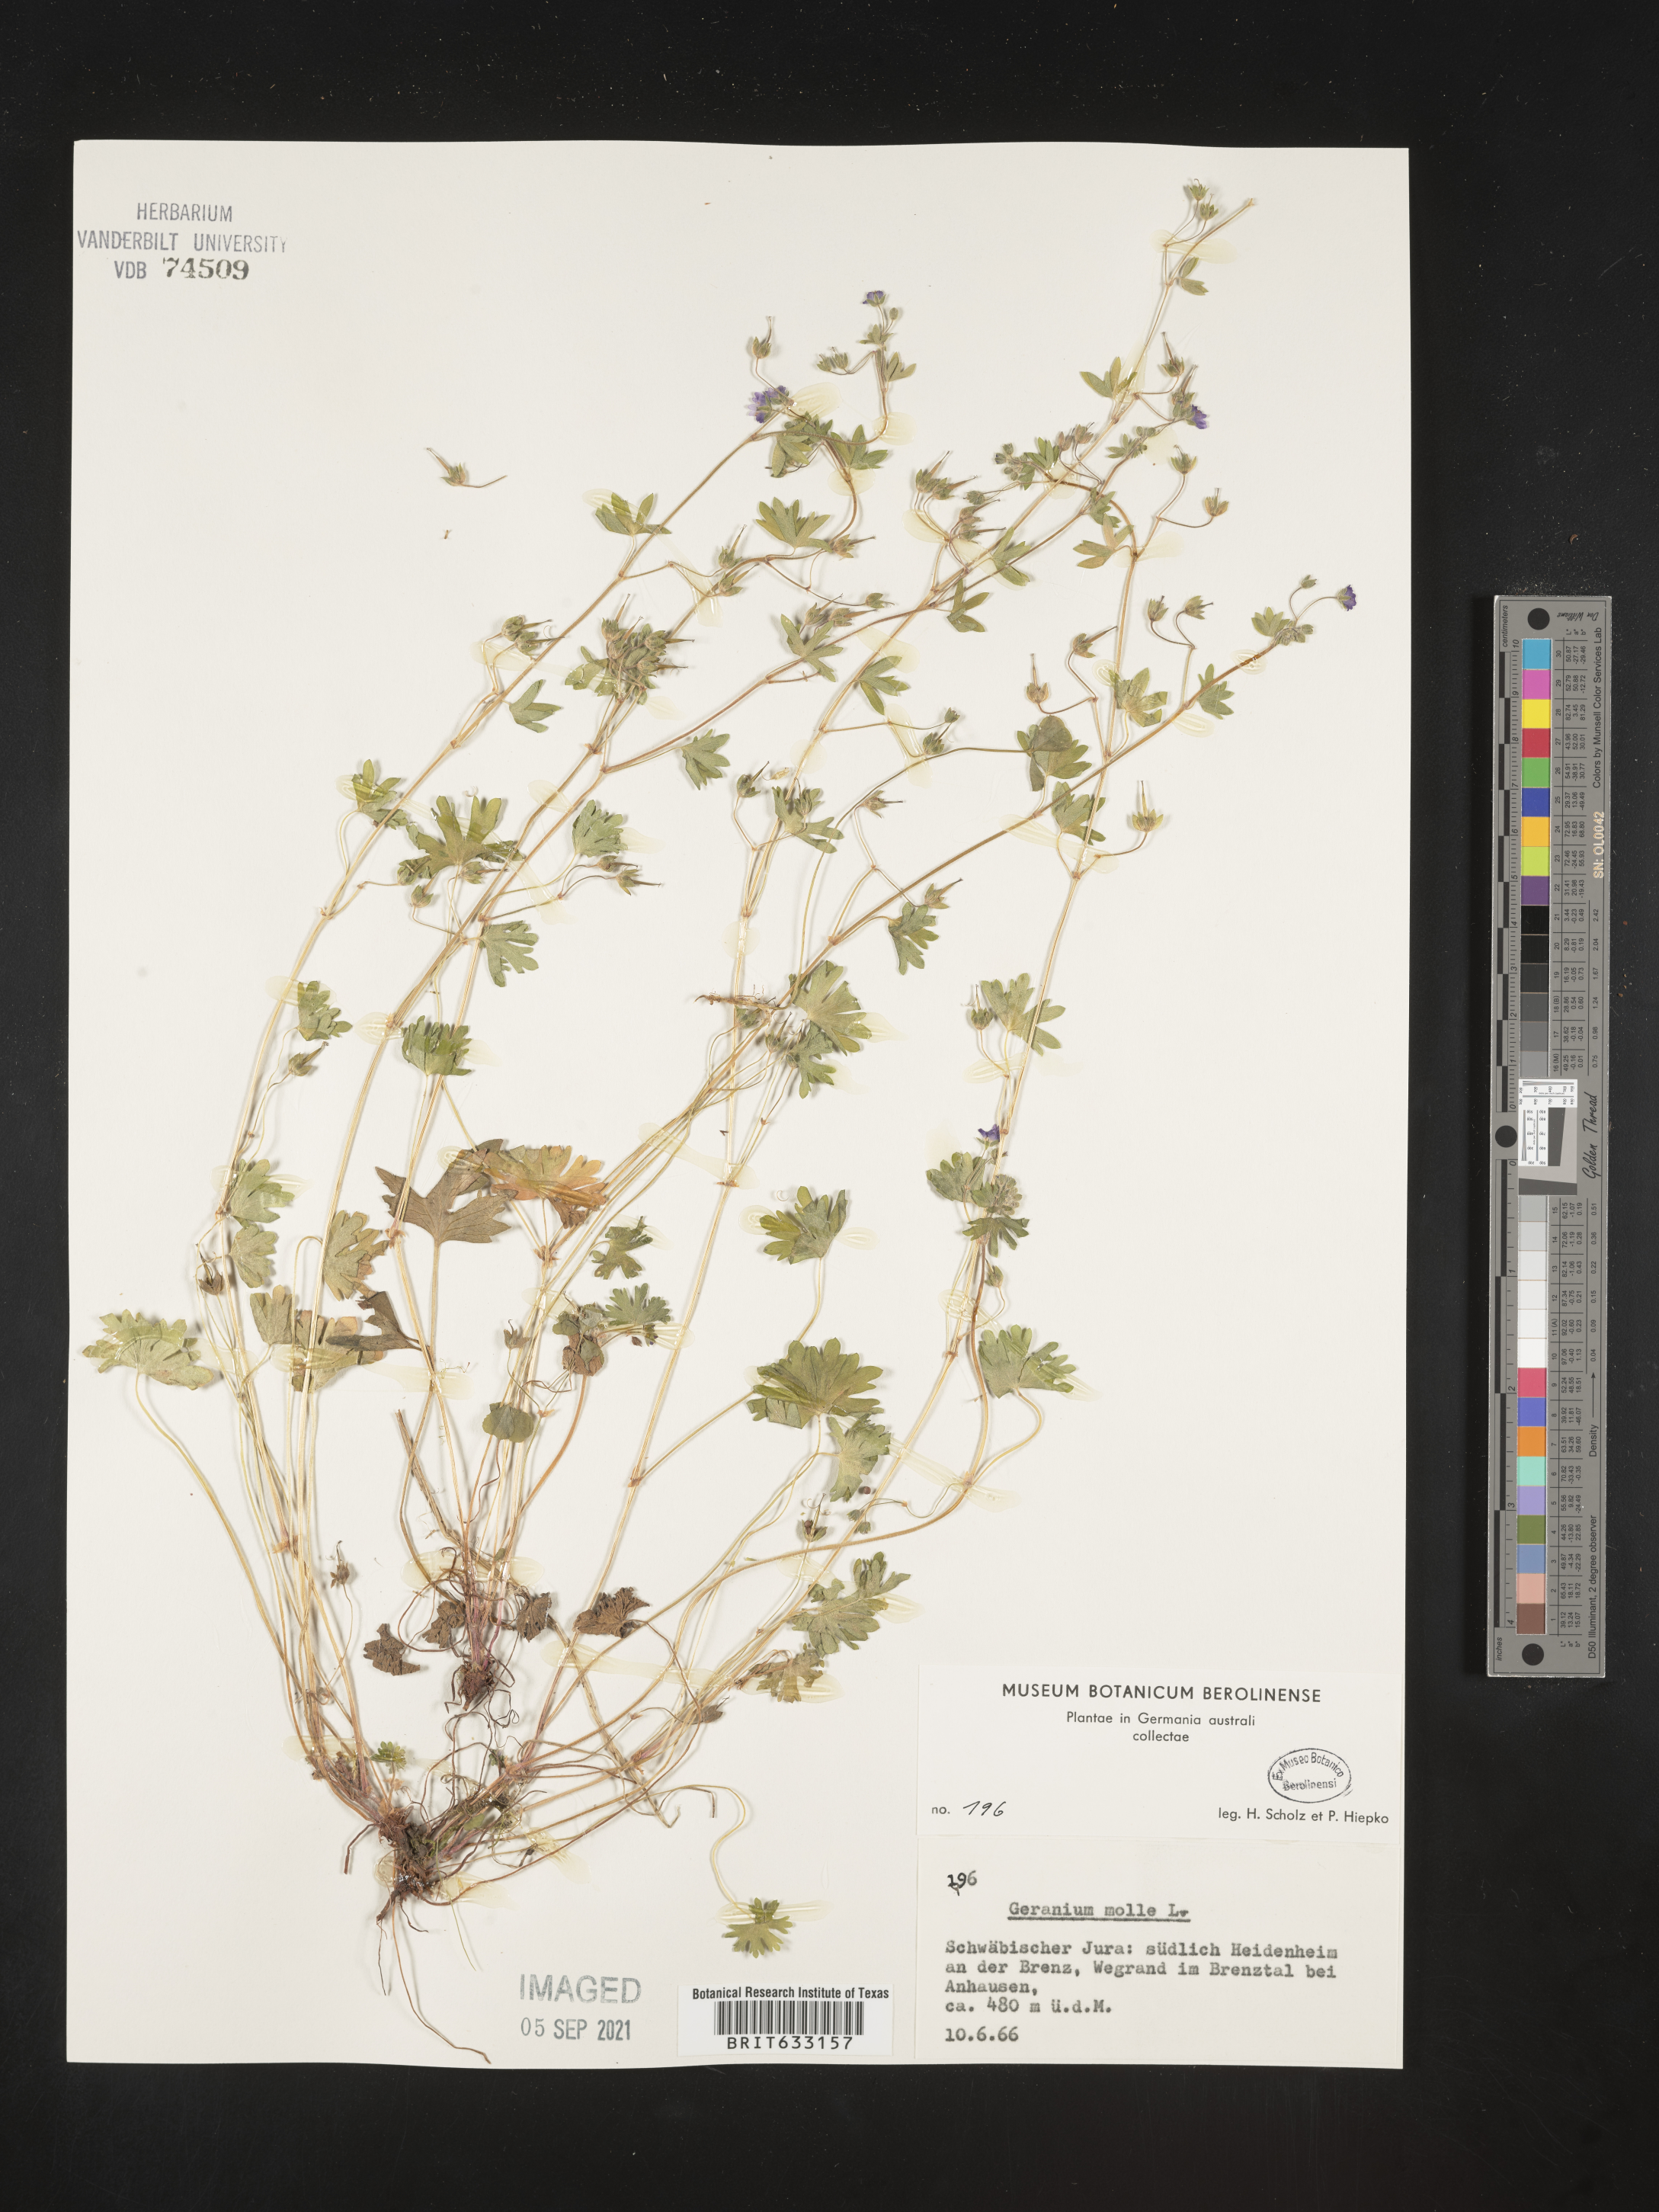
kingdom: Plantae
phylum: Tracheophyta
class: Magnoliopsida
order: Geraniales
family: Geraniaceae
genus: Geranium
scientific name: Geranium
